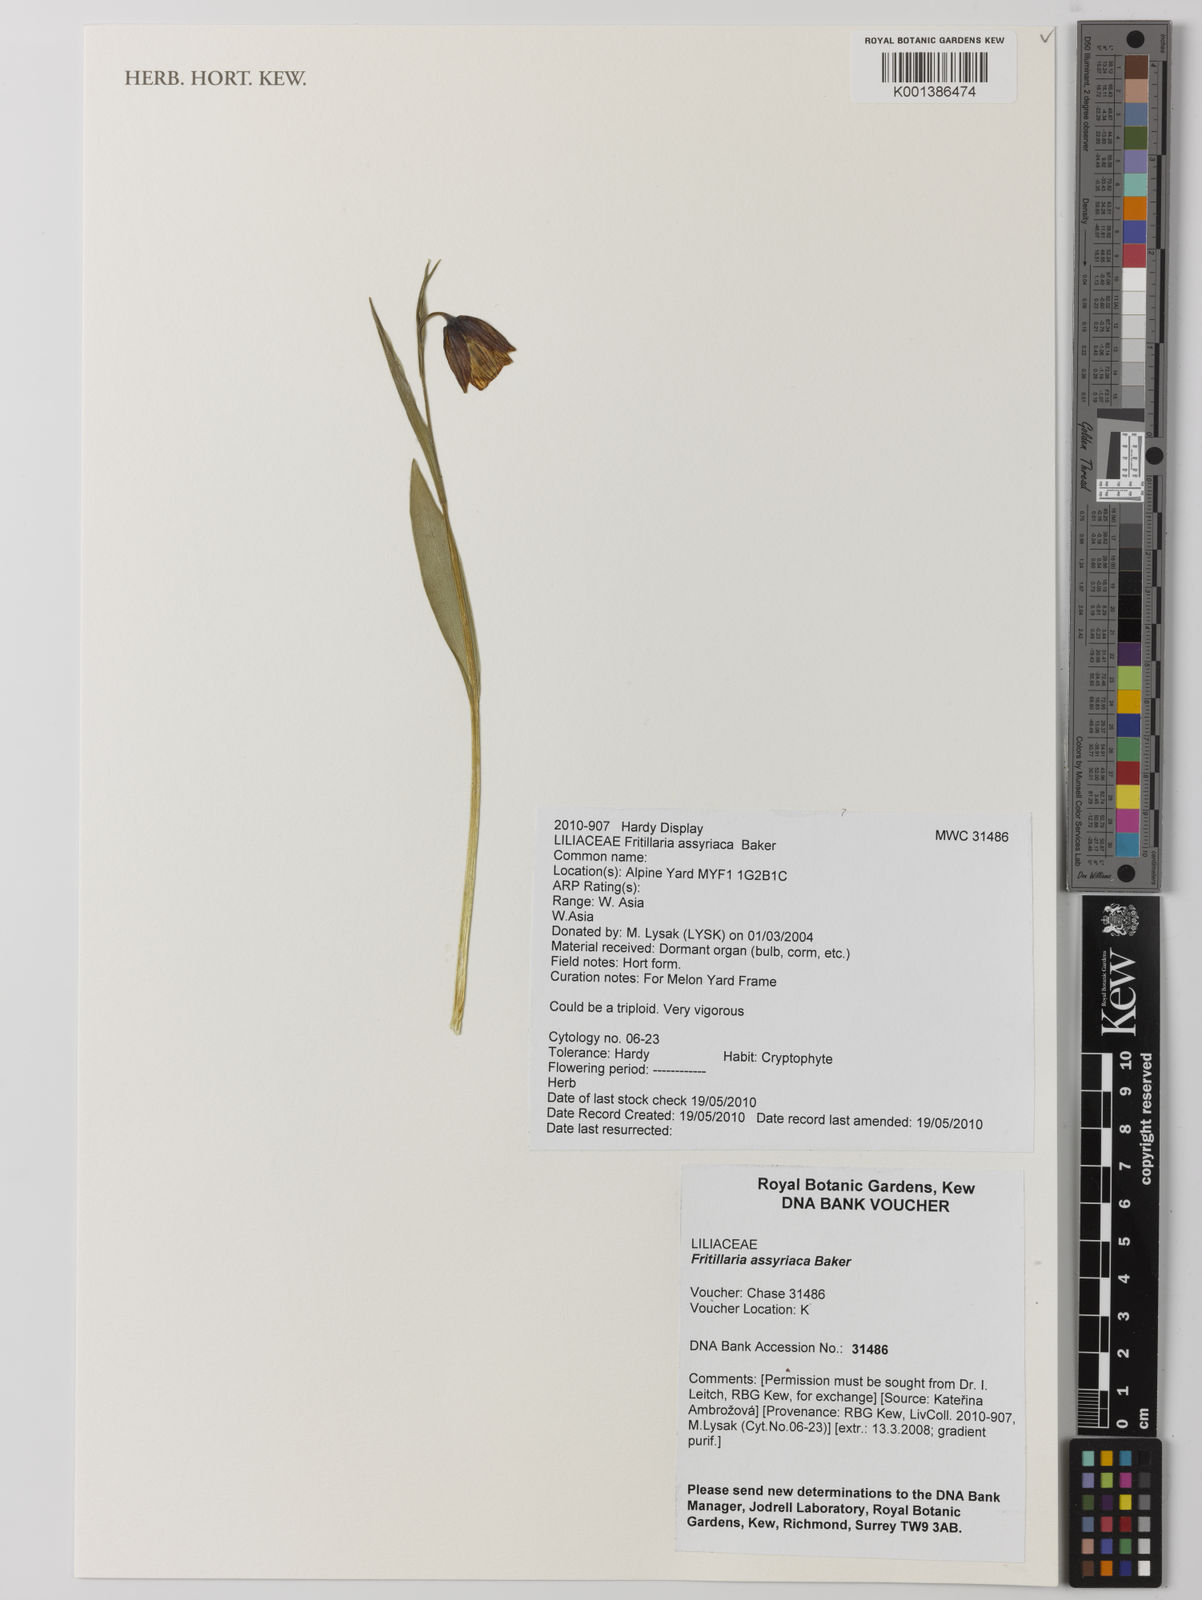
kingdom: Plantae
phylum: Tracheophyta
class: Liliopsida
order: Liliales
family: Liliaceae
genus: Fritillaria
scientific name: Fritillaria assyriaca
